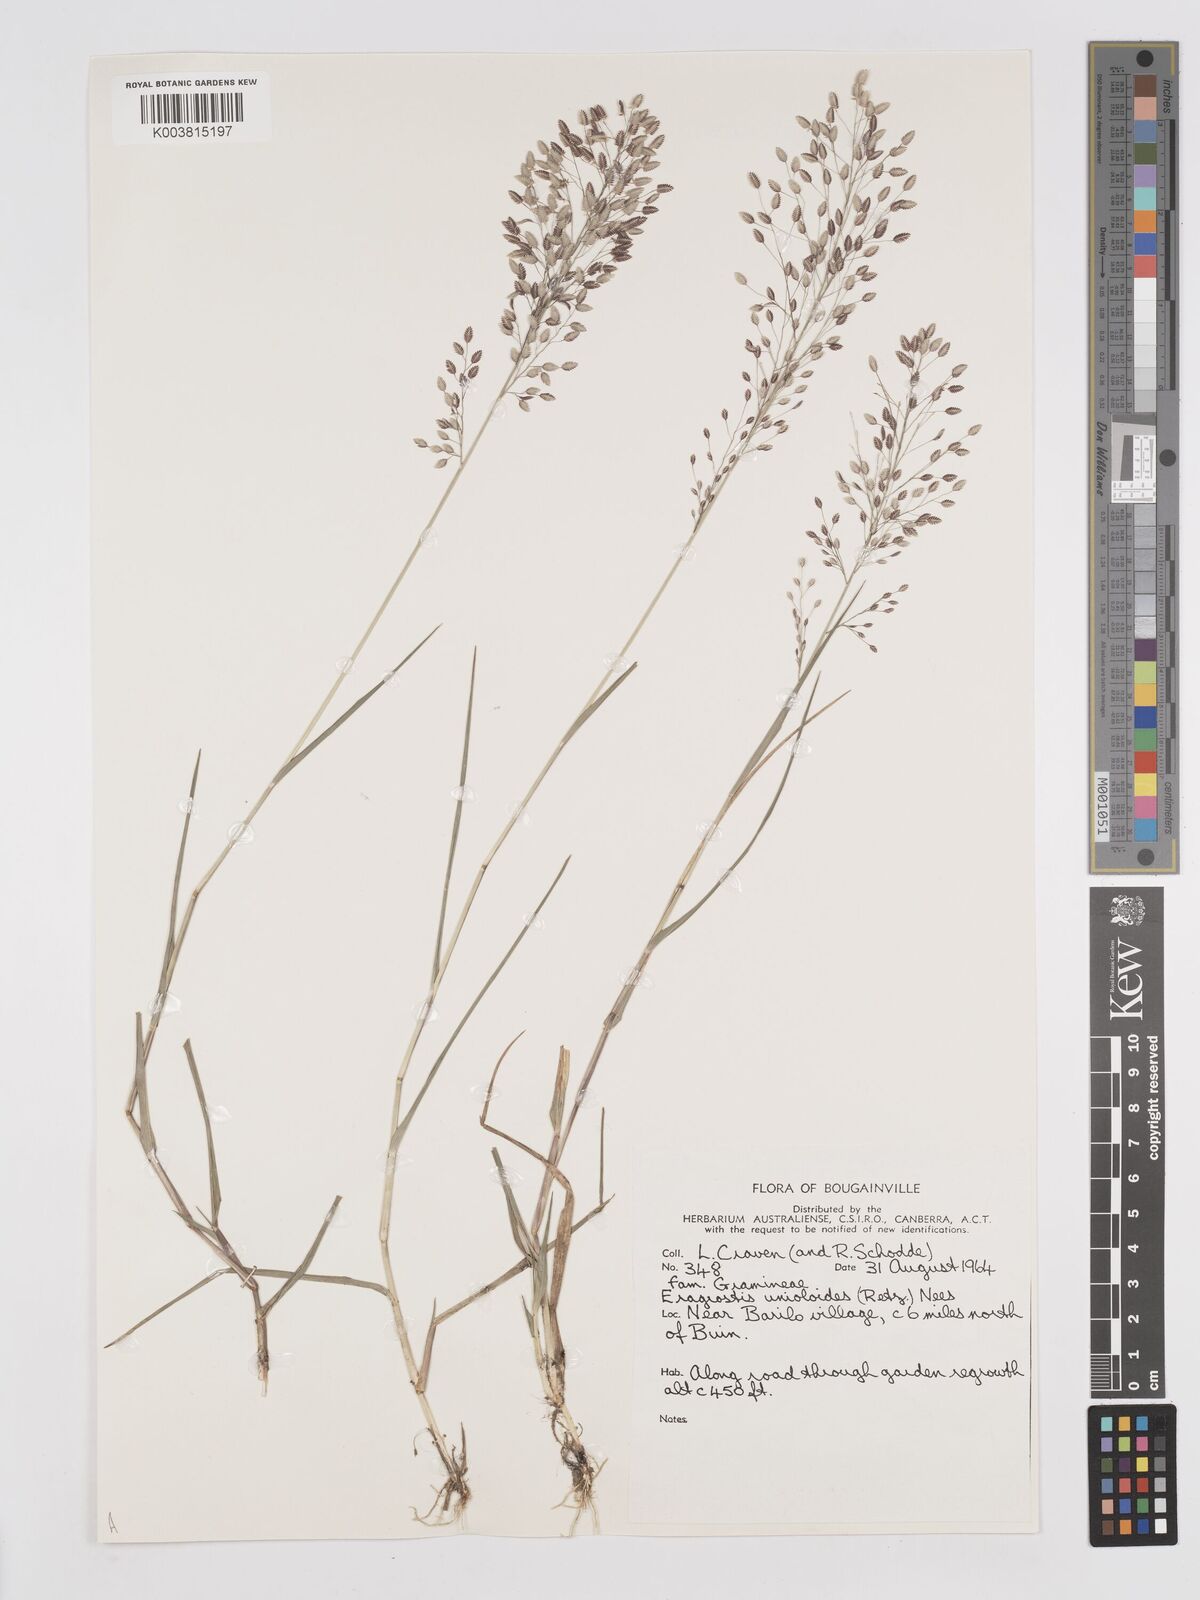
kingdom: Plantae
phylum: Tracheophyta
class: Liliopsida
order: Poales
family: Poaceae
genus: Eragrostis
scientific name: Eragrostis unioloides
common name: Chinese lovegrass
